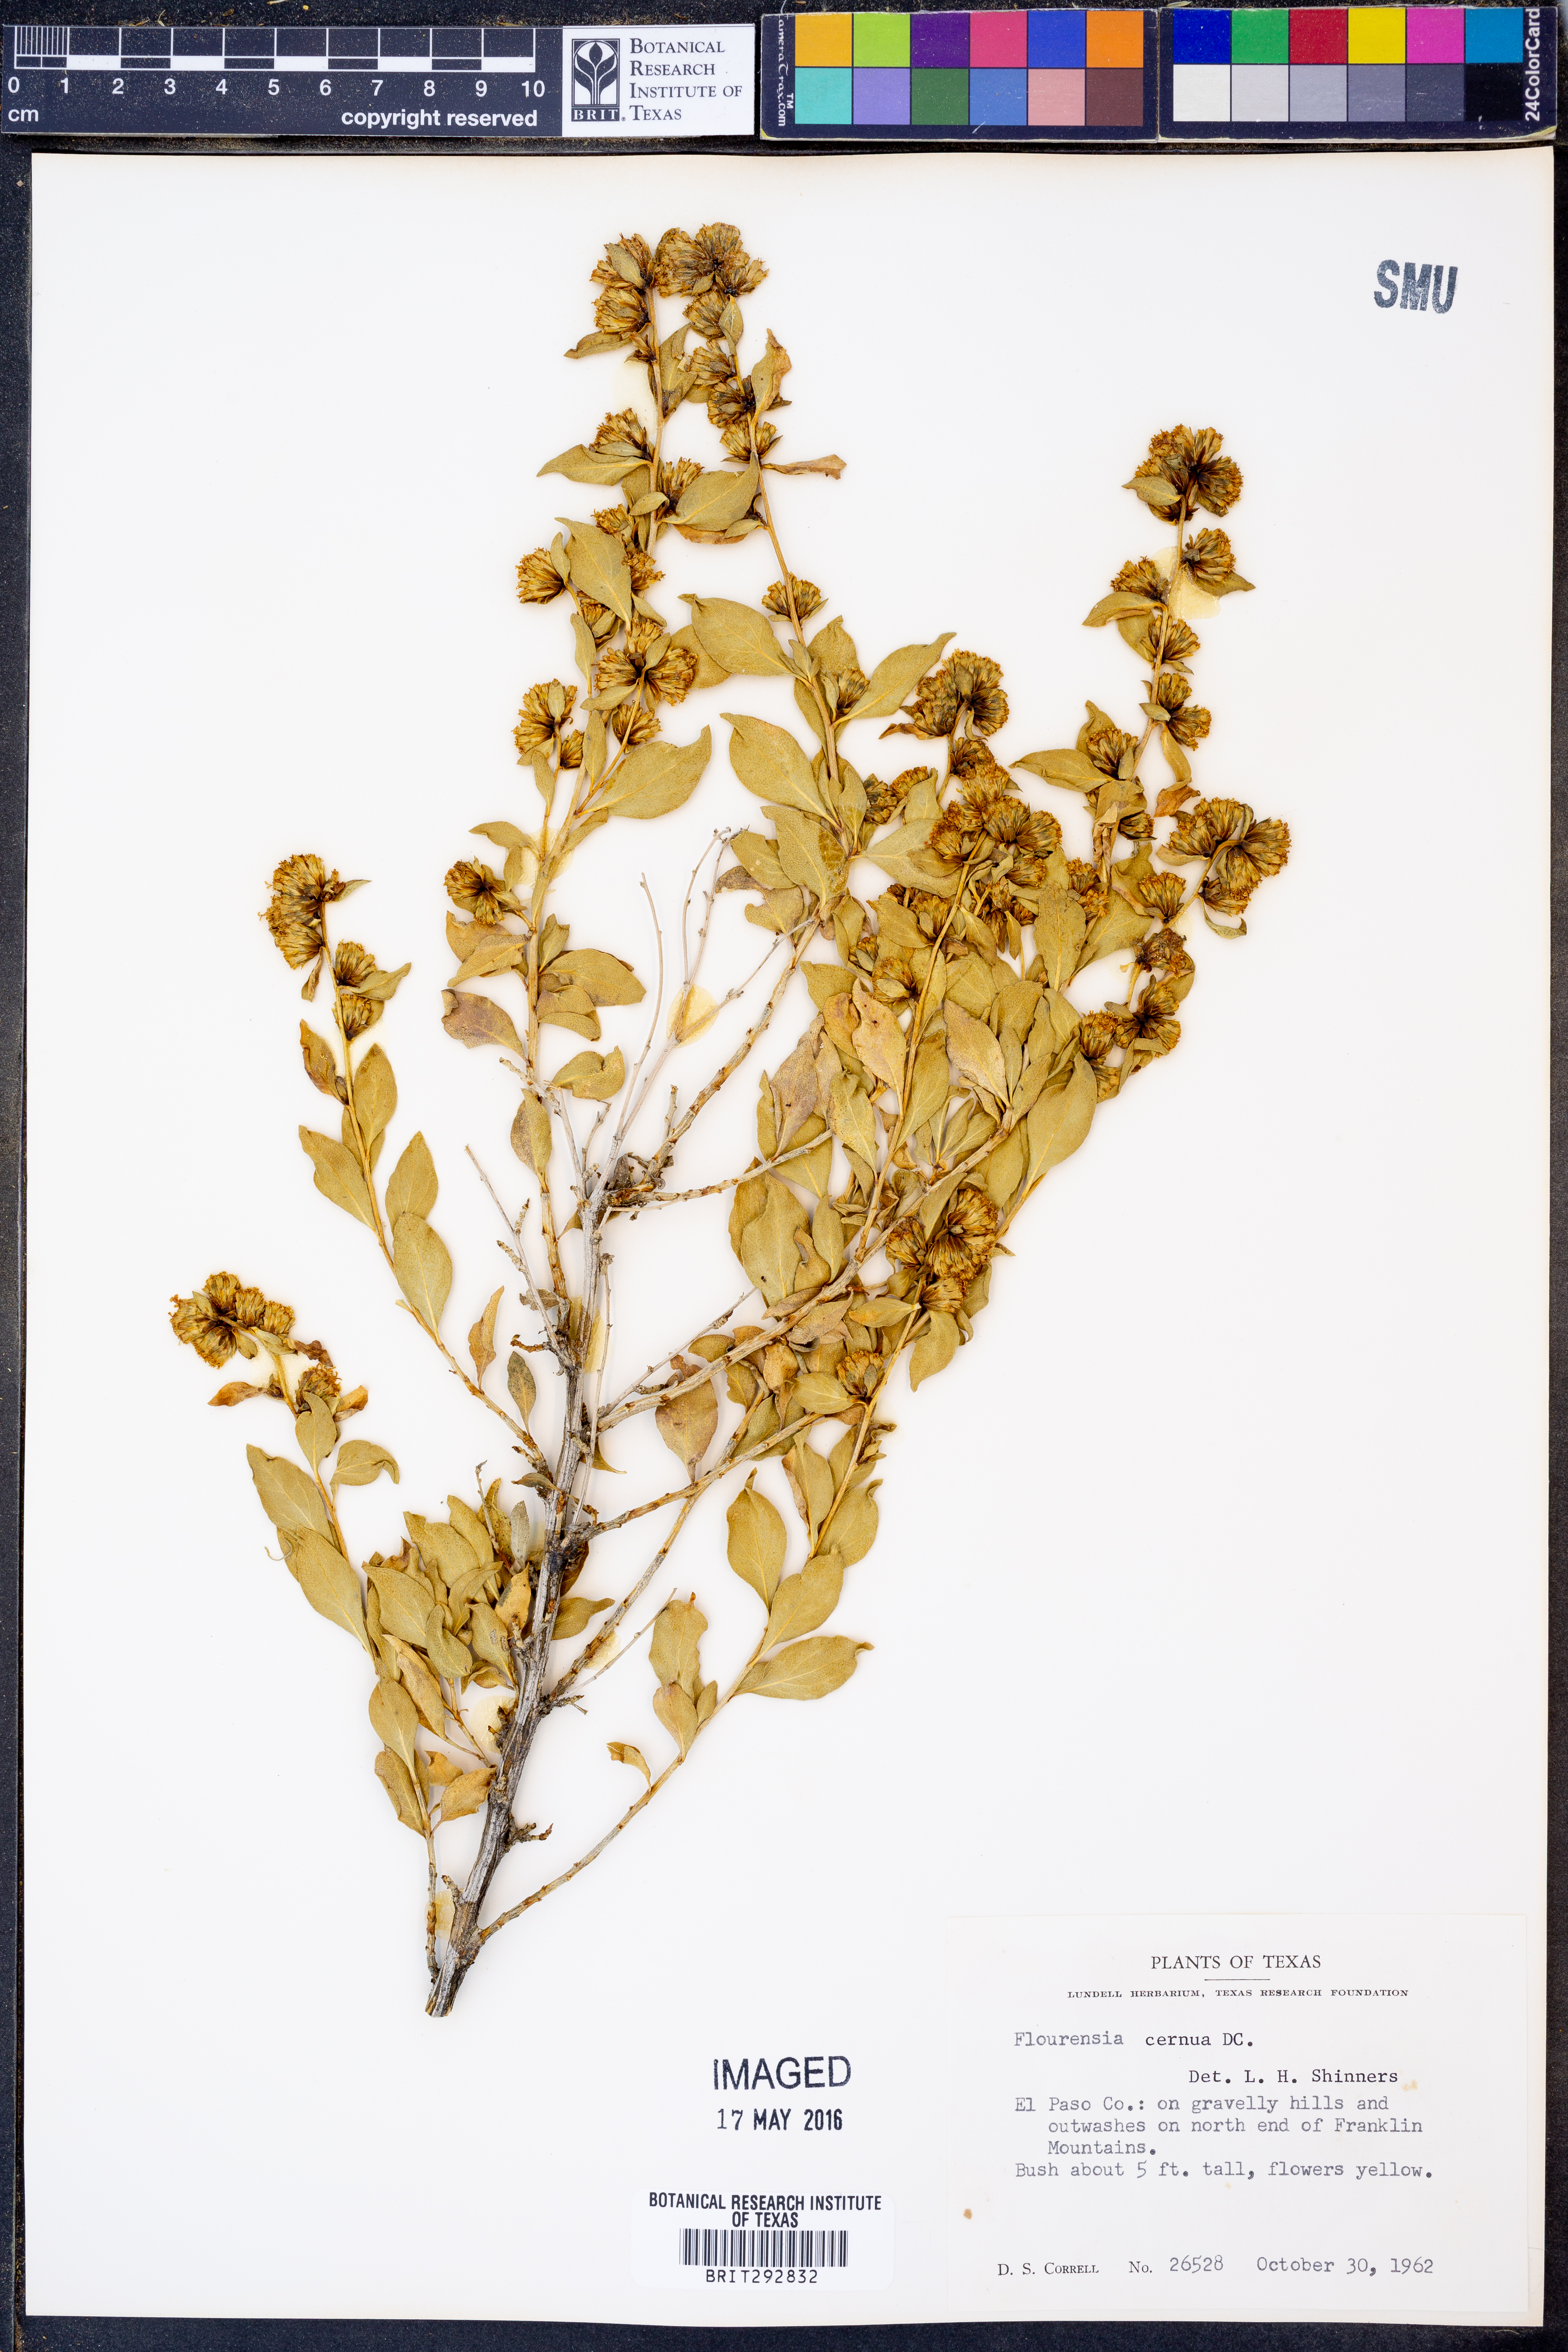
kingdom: Plantae
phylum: Tracheophyta
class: Magnoliopsida
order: Asterales
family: Asteraceae
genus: Flourensia
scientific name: Flourensia cernua
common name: Varnishbush
